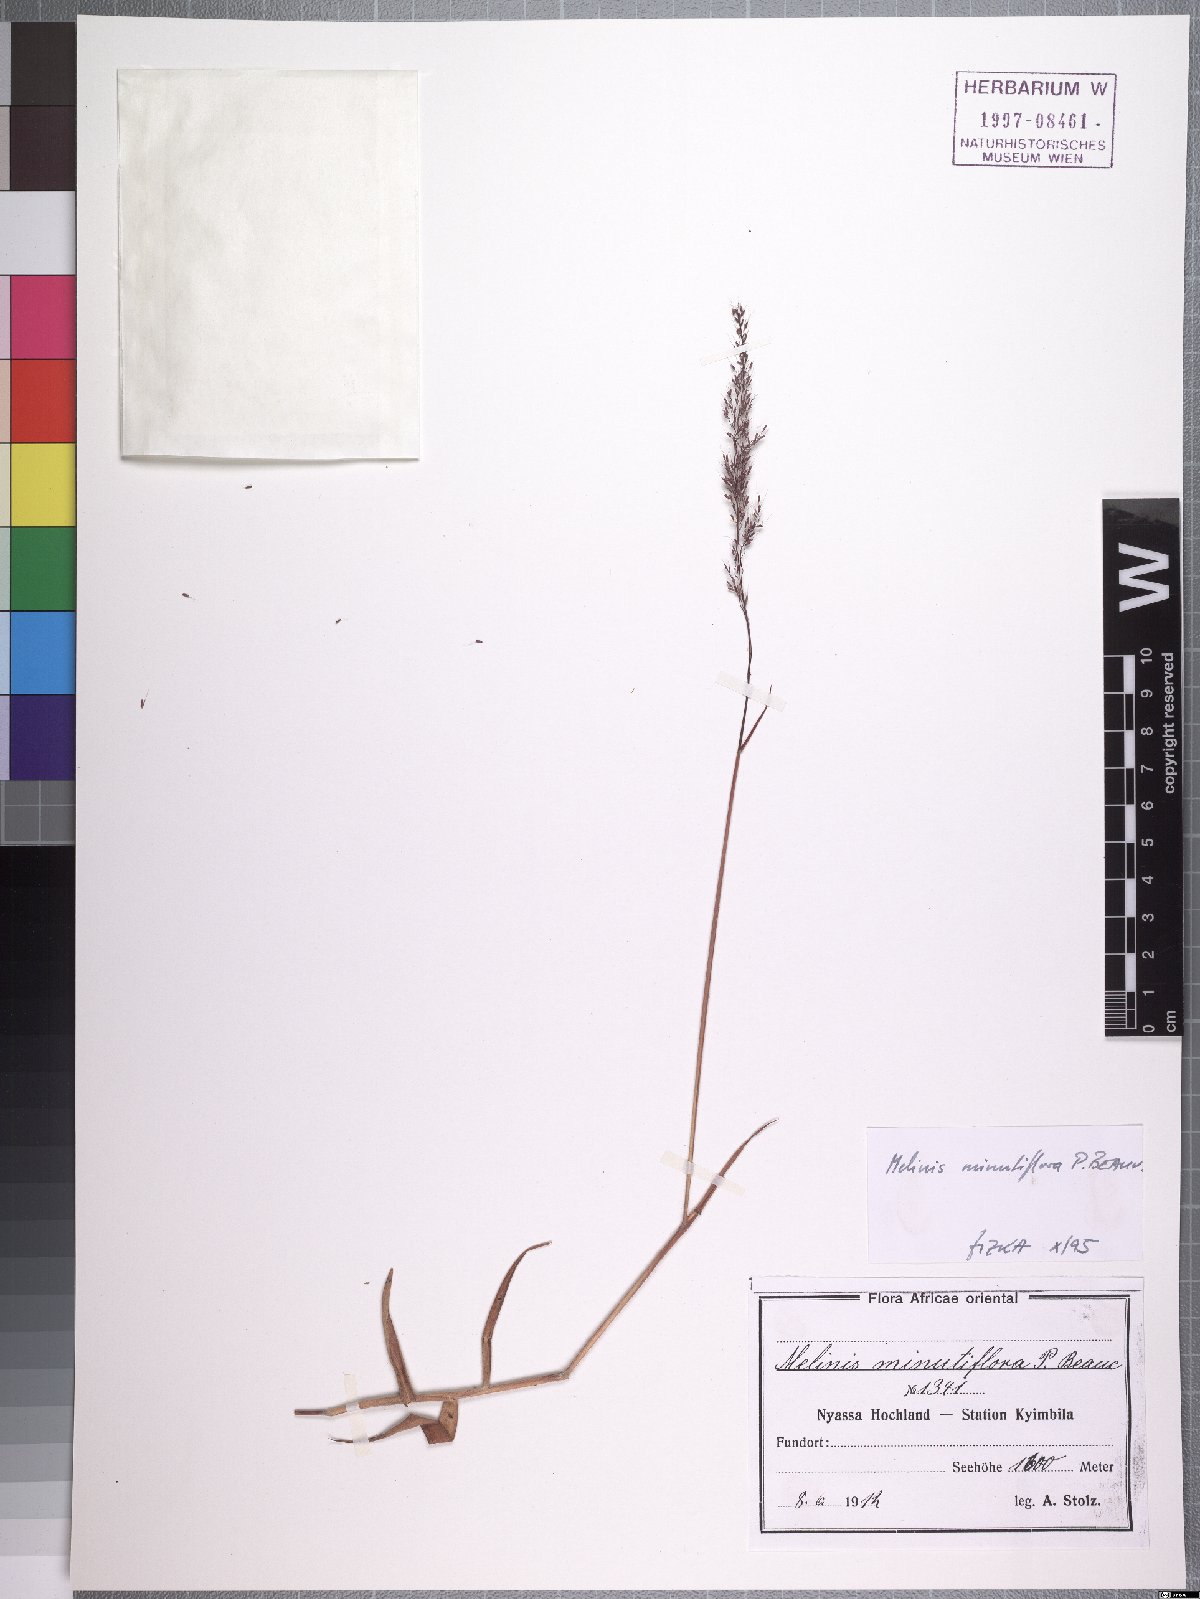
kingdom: Plantae
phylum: Tracheophyta
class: Liliopsida
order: Poales
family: Poaceae
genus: Melinis
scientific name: Melinis minutiflora
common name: Molassesgrass
